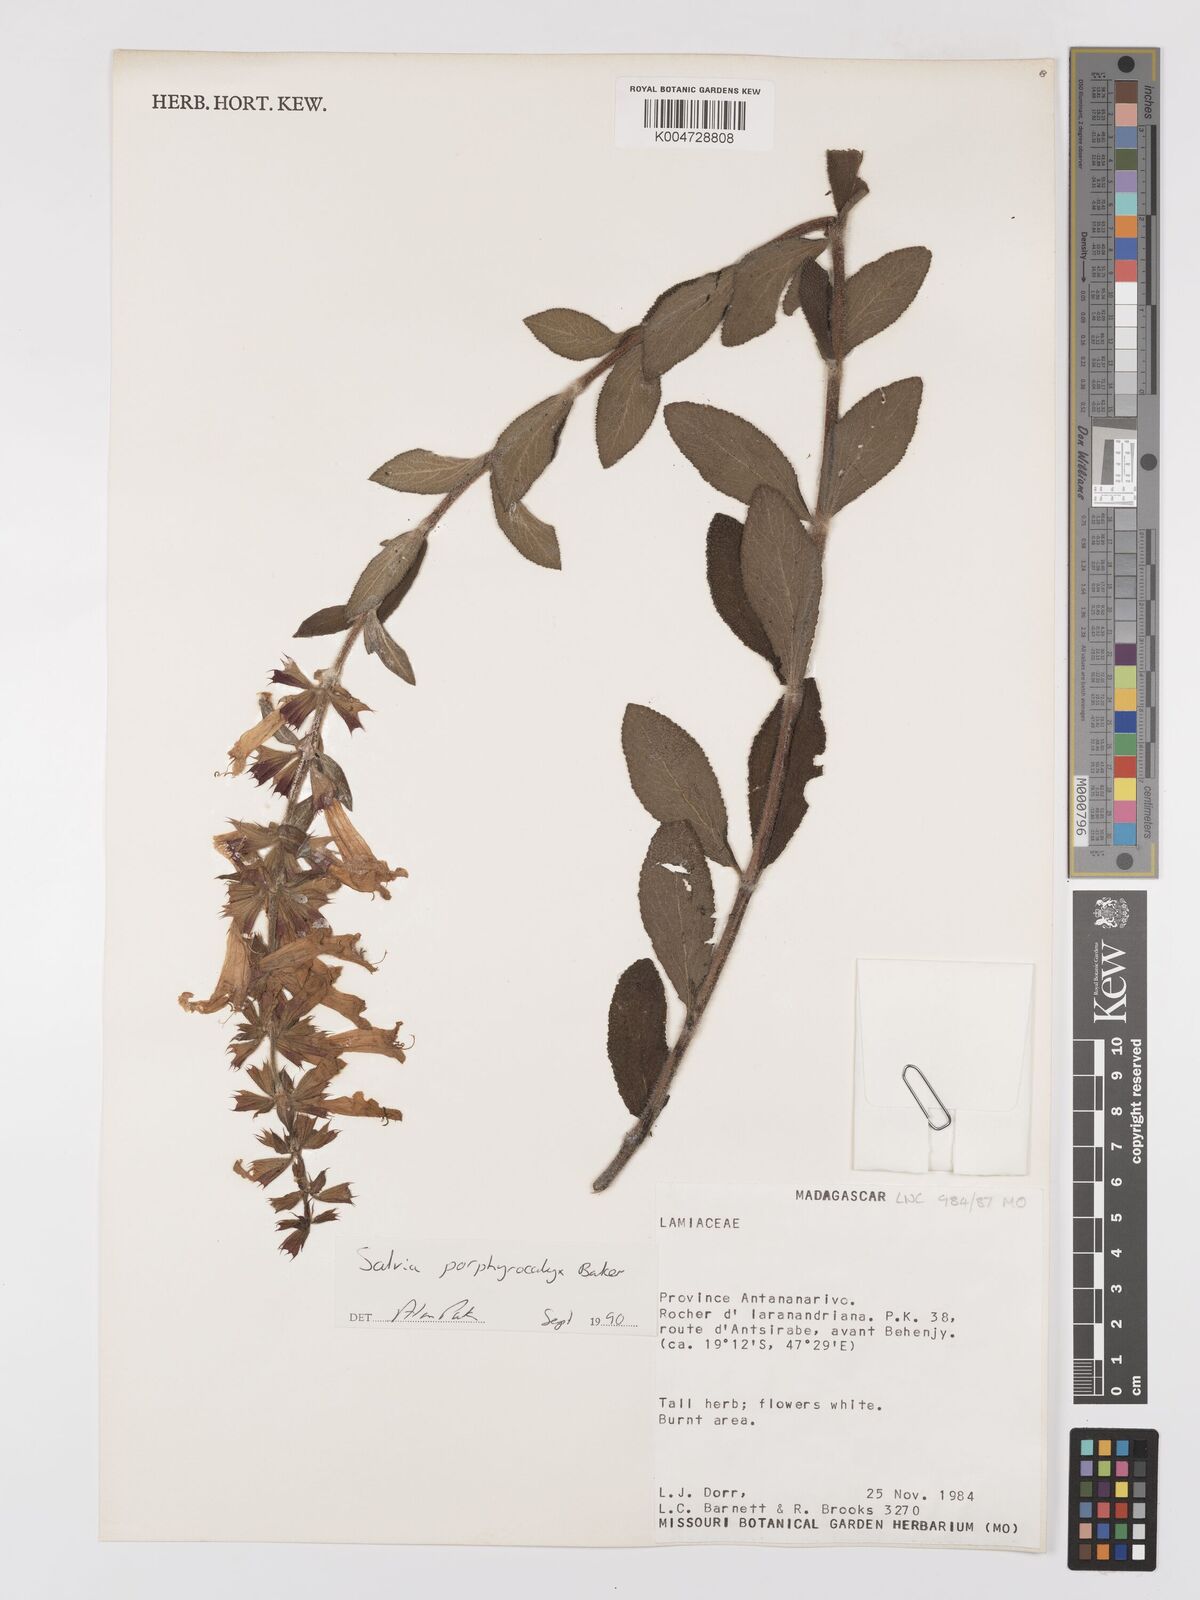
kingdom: Plantae
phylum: Tracheophyta
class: Magnoliopsida
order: Lamiales
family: Lamiaceae
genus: Salvia
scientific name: Salvia porphyrocalyx
